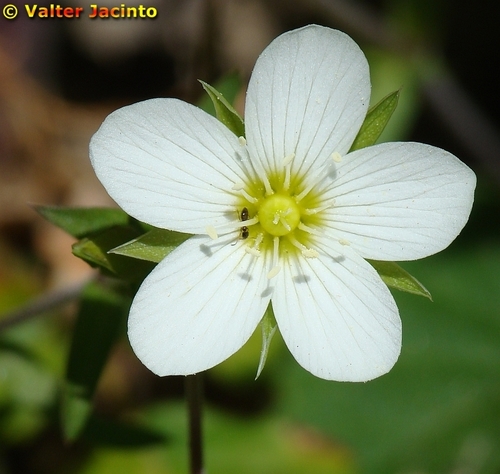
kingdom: Plantae
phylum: Tracheophyta
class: Magnoliopsida
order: Caryophyllales
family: Caryophyllaceae
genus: Arenaria
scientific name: Arenaria montana
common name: Mountain sandwort
